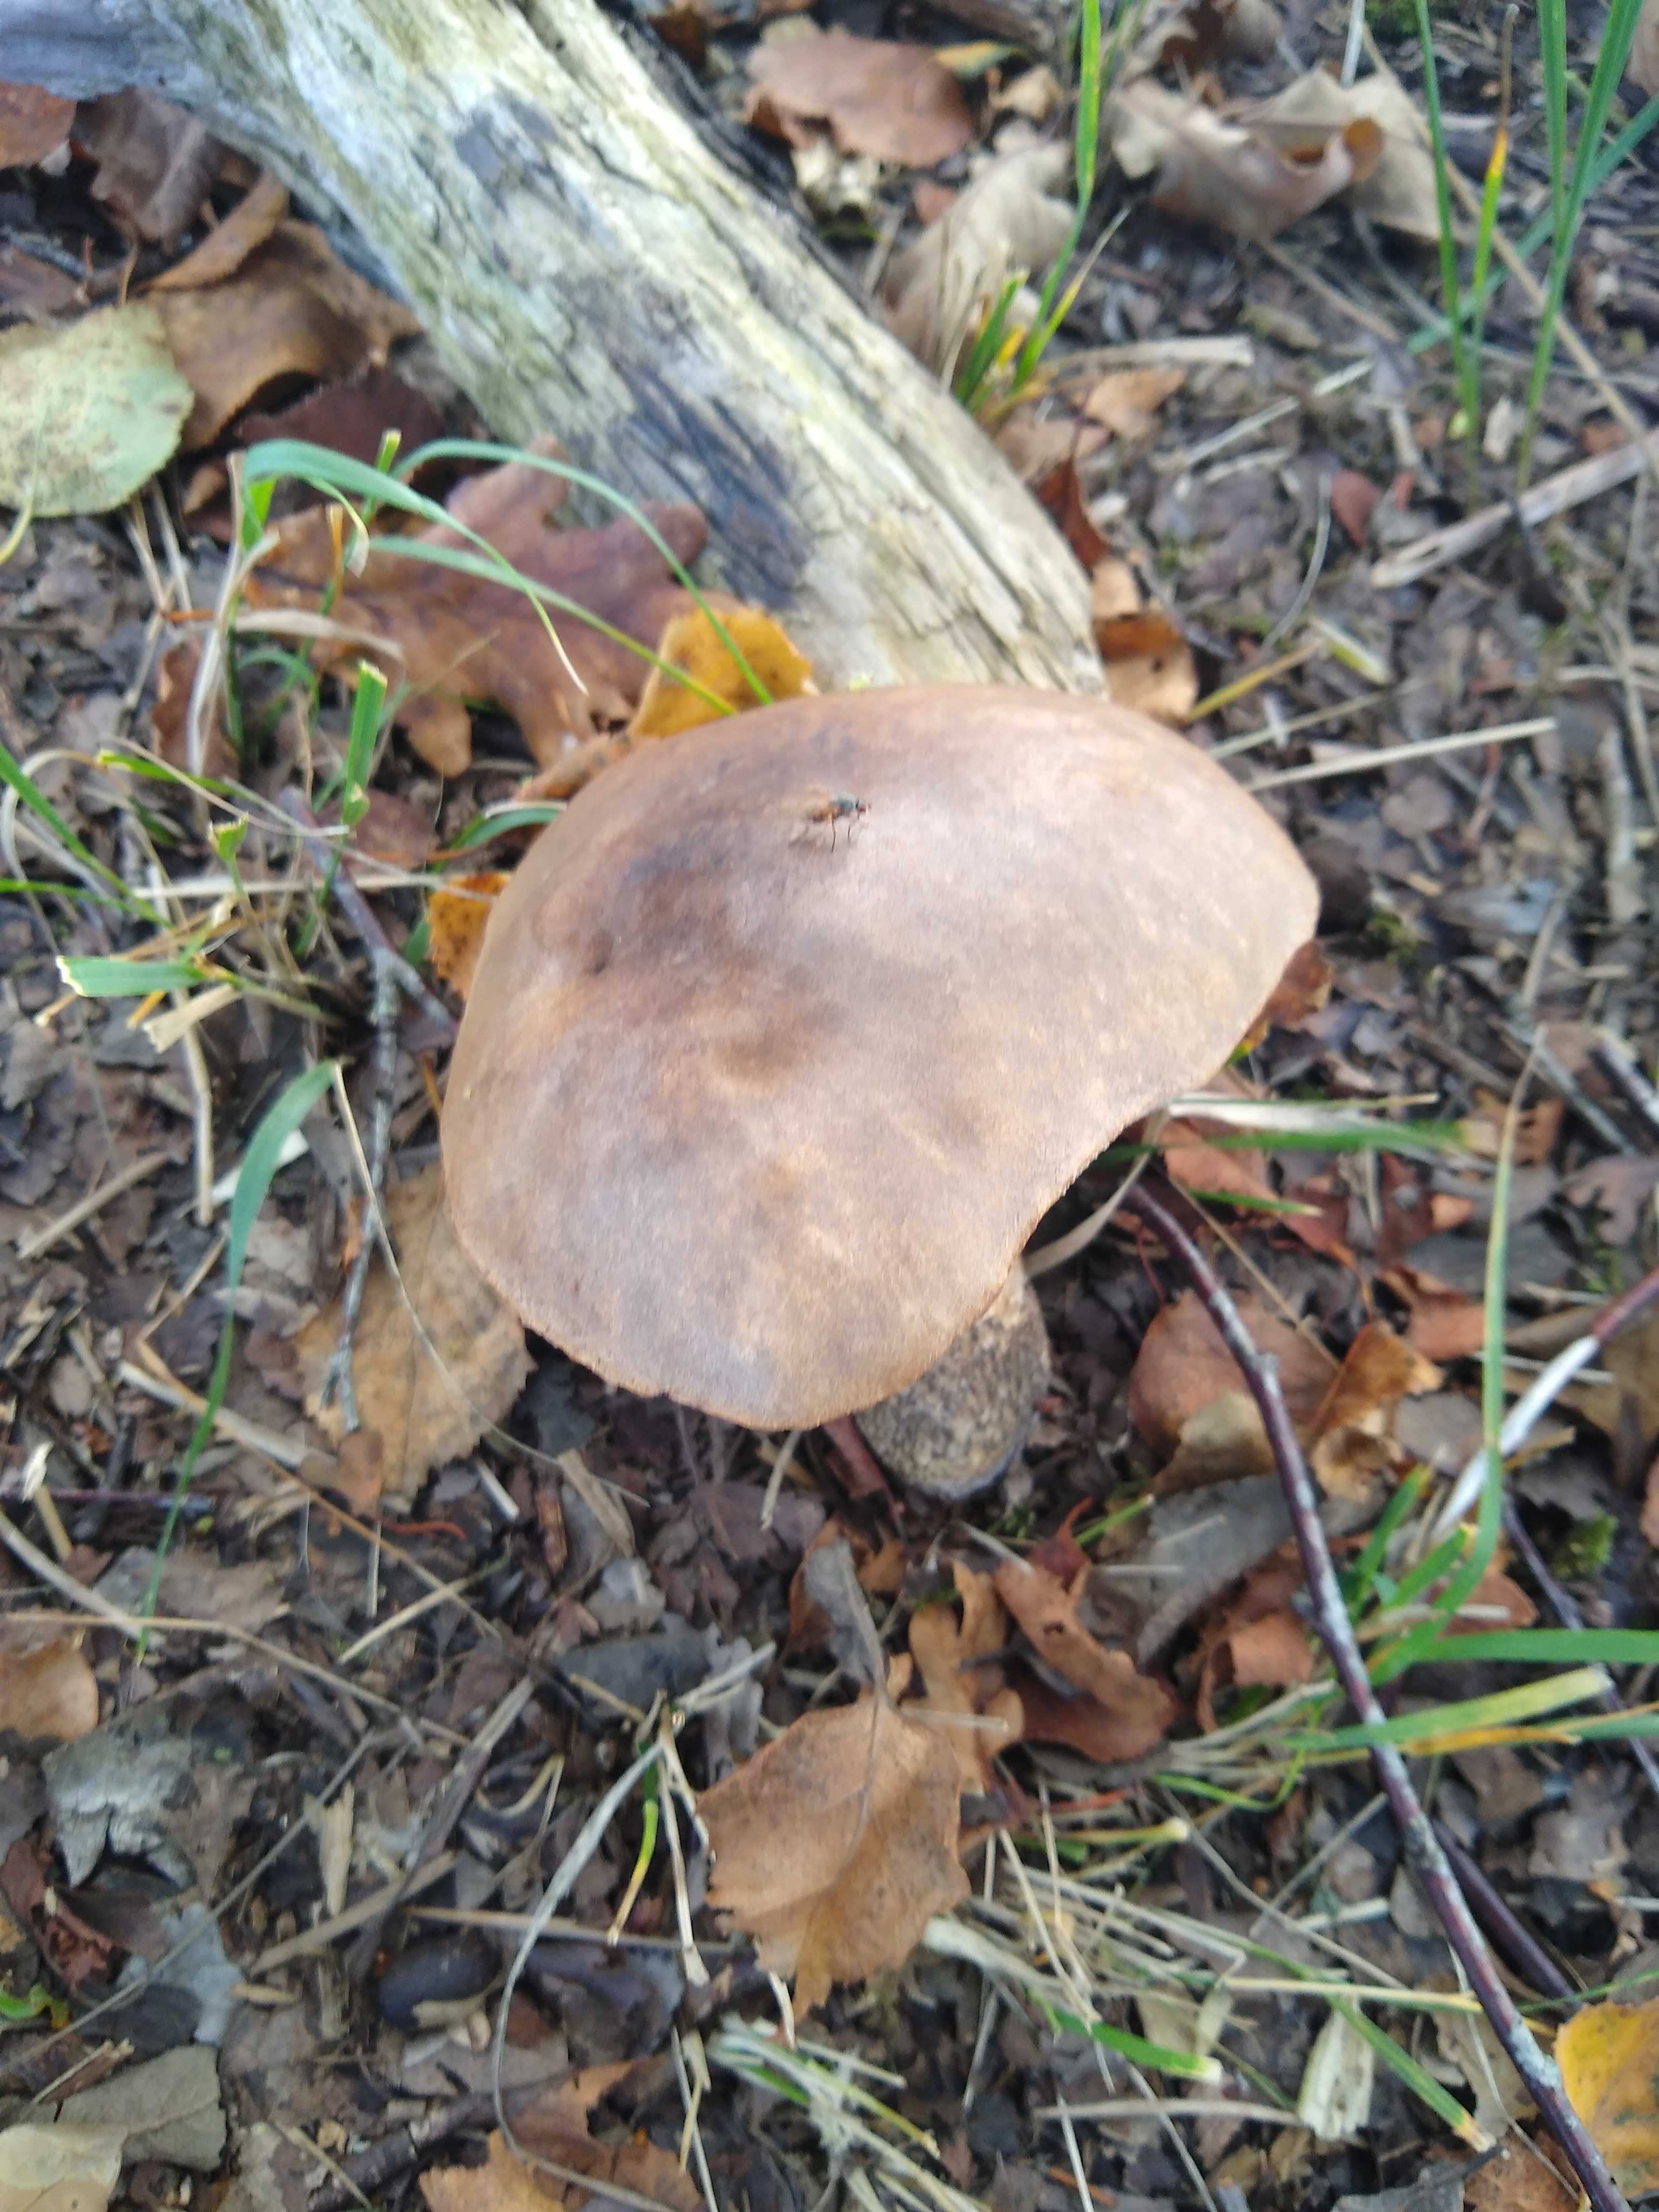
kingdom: Fungi
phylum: Basidiomycota
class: Agaricomycetes
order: Boletales
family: Boletaceae
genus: Leccinum
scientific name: Leccinum
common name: skælrørhat
